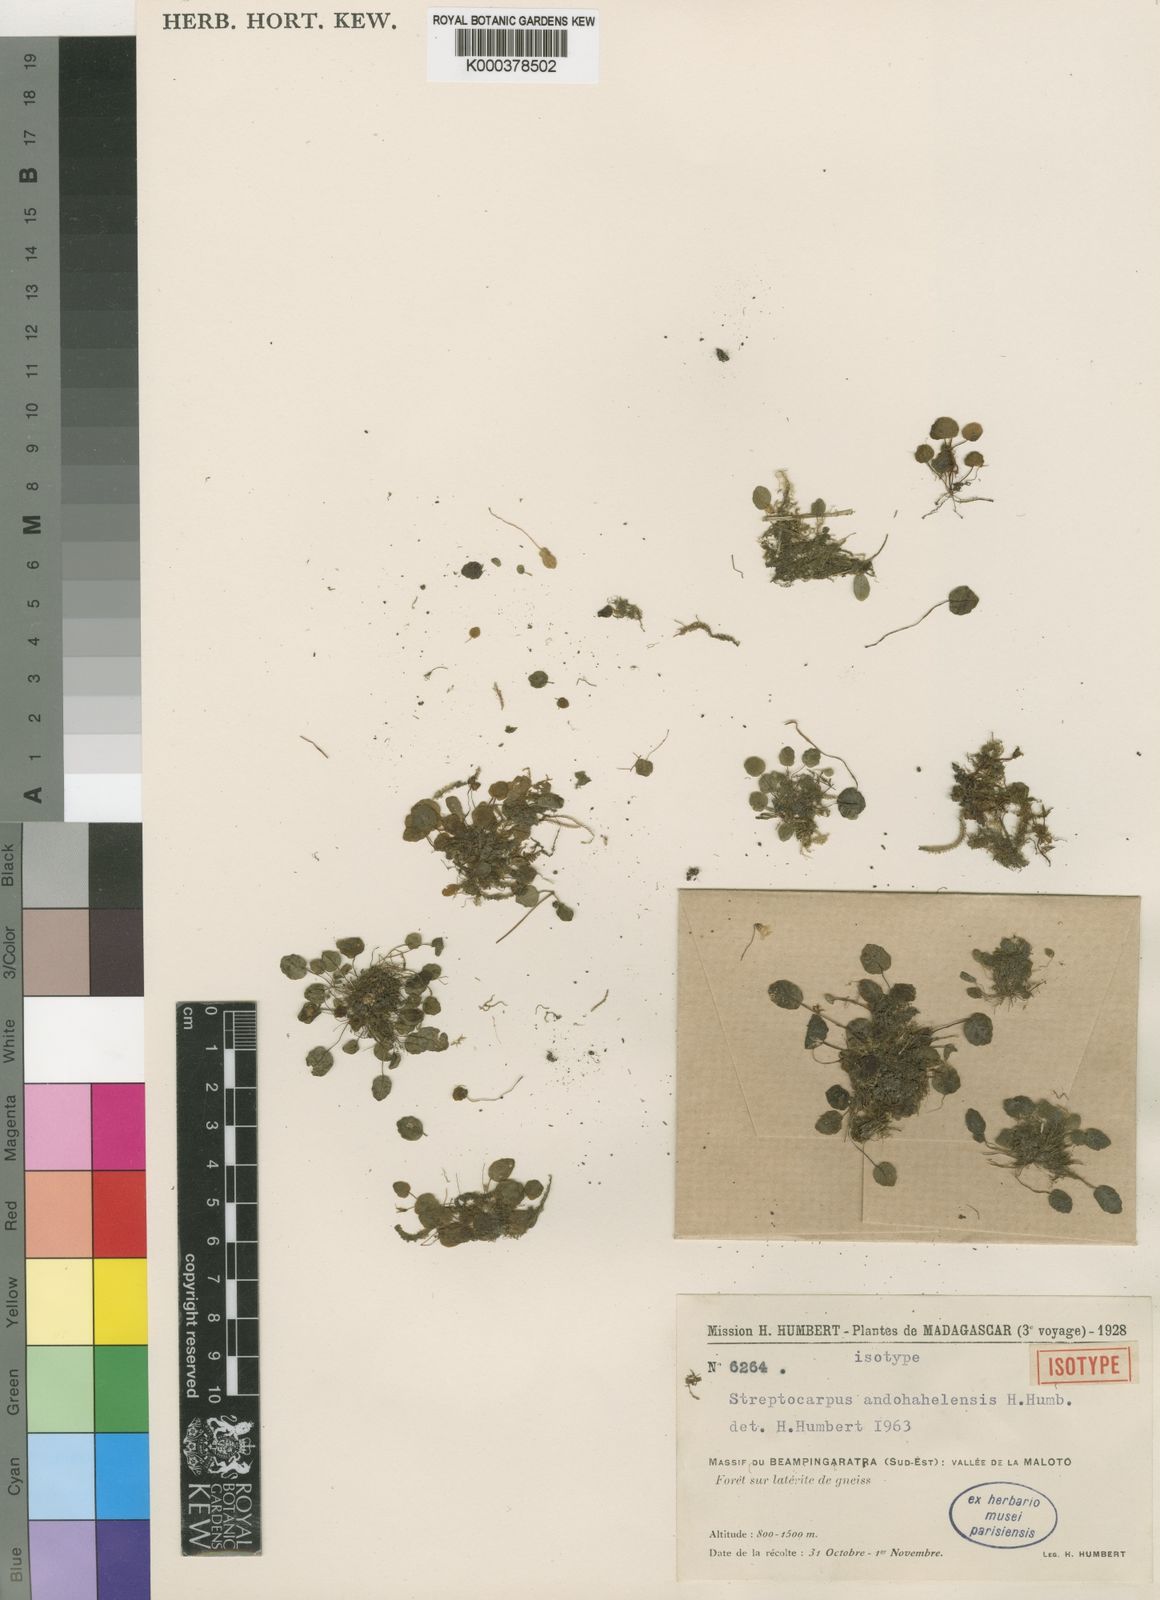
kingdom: Plantae
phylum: Tracheophyta
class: Magnoliopsida
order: Lamiales
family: Gesneriaceae
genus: Streptocarpus
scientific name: Streptocarpus andohahelensis
